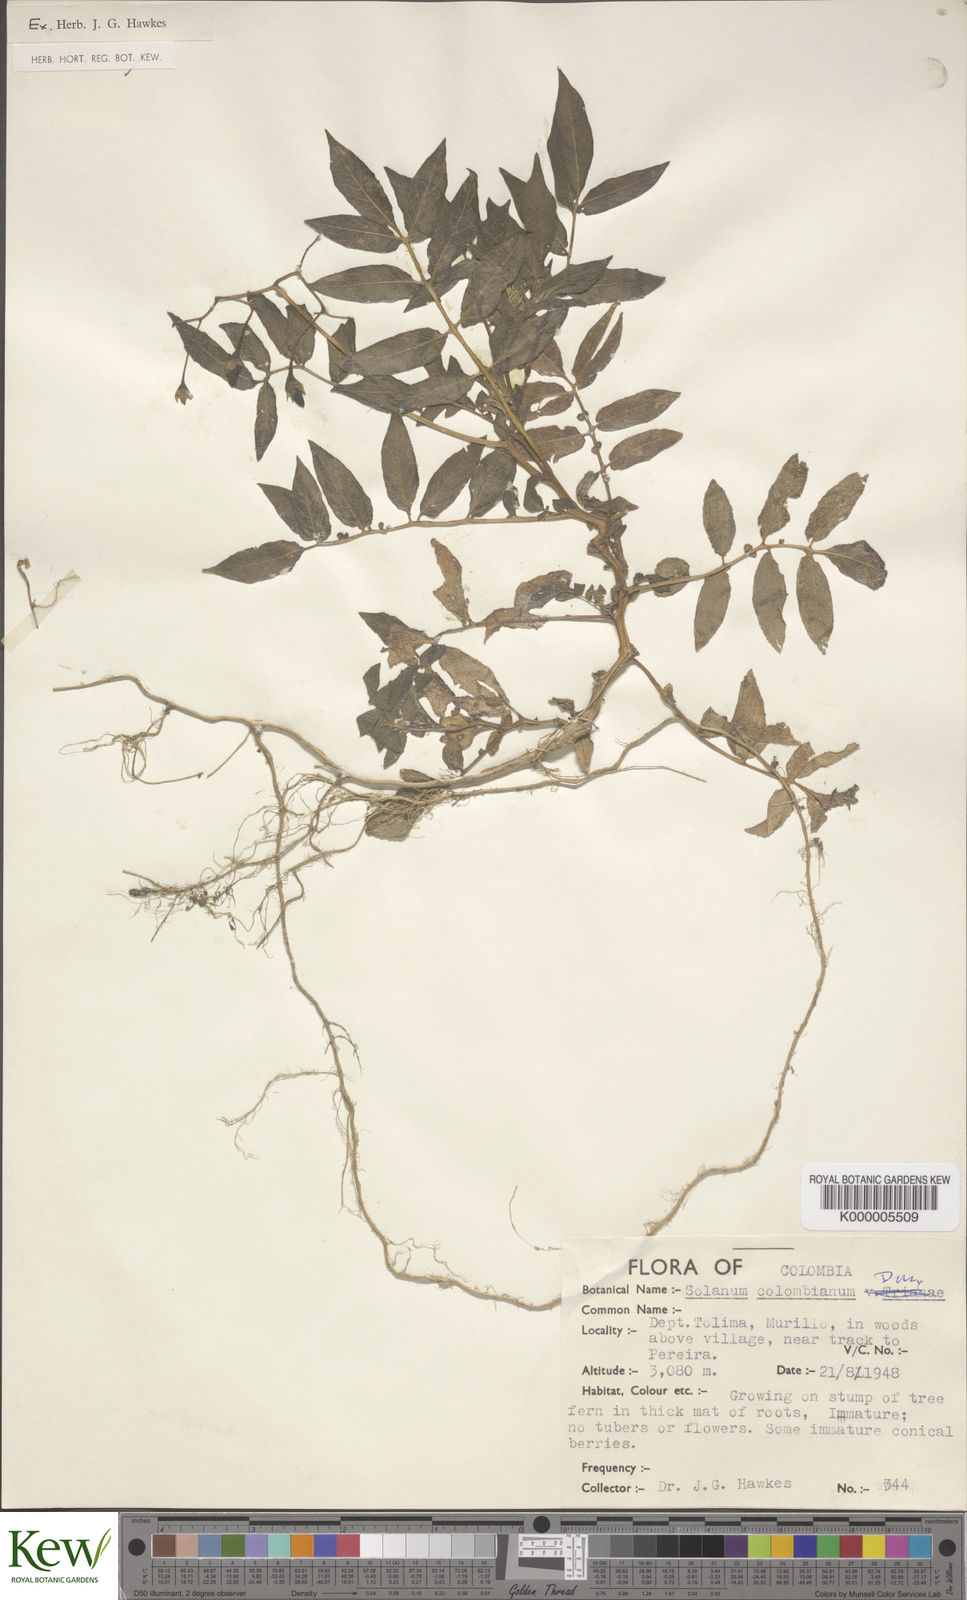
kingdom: Plantae
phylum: Tracheophyta
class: Magnoliopsida
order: Solanales
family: Solanaceae
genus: Solanum
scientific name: Solanum colombianum
